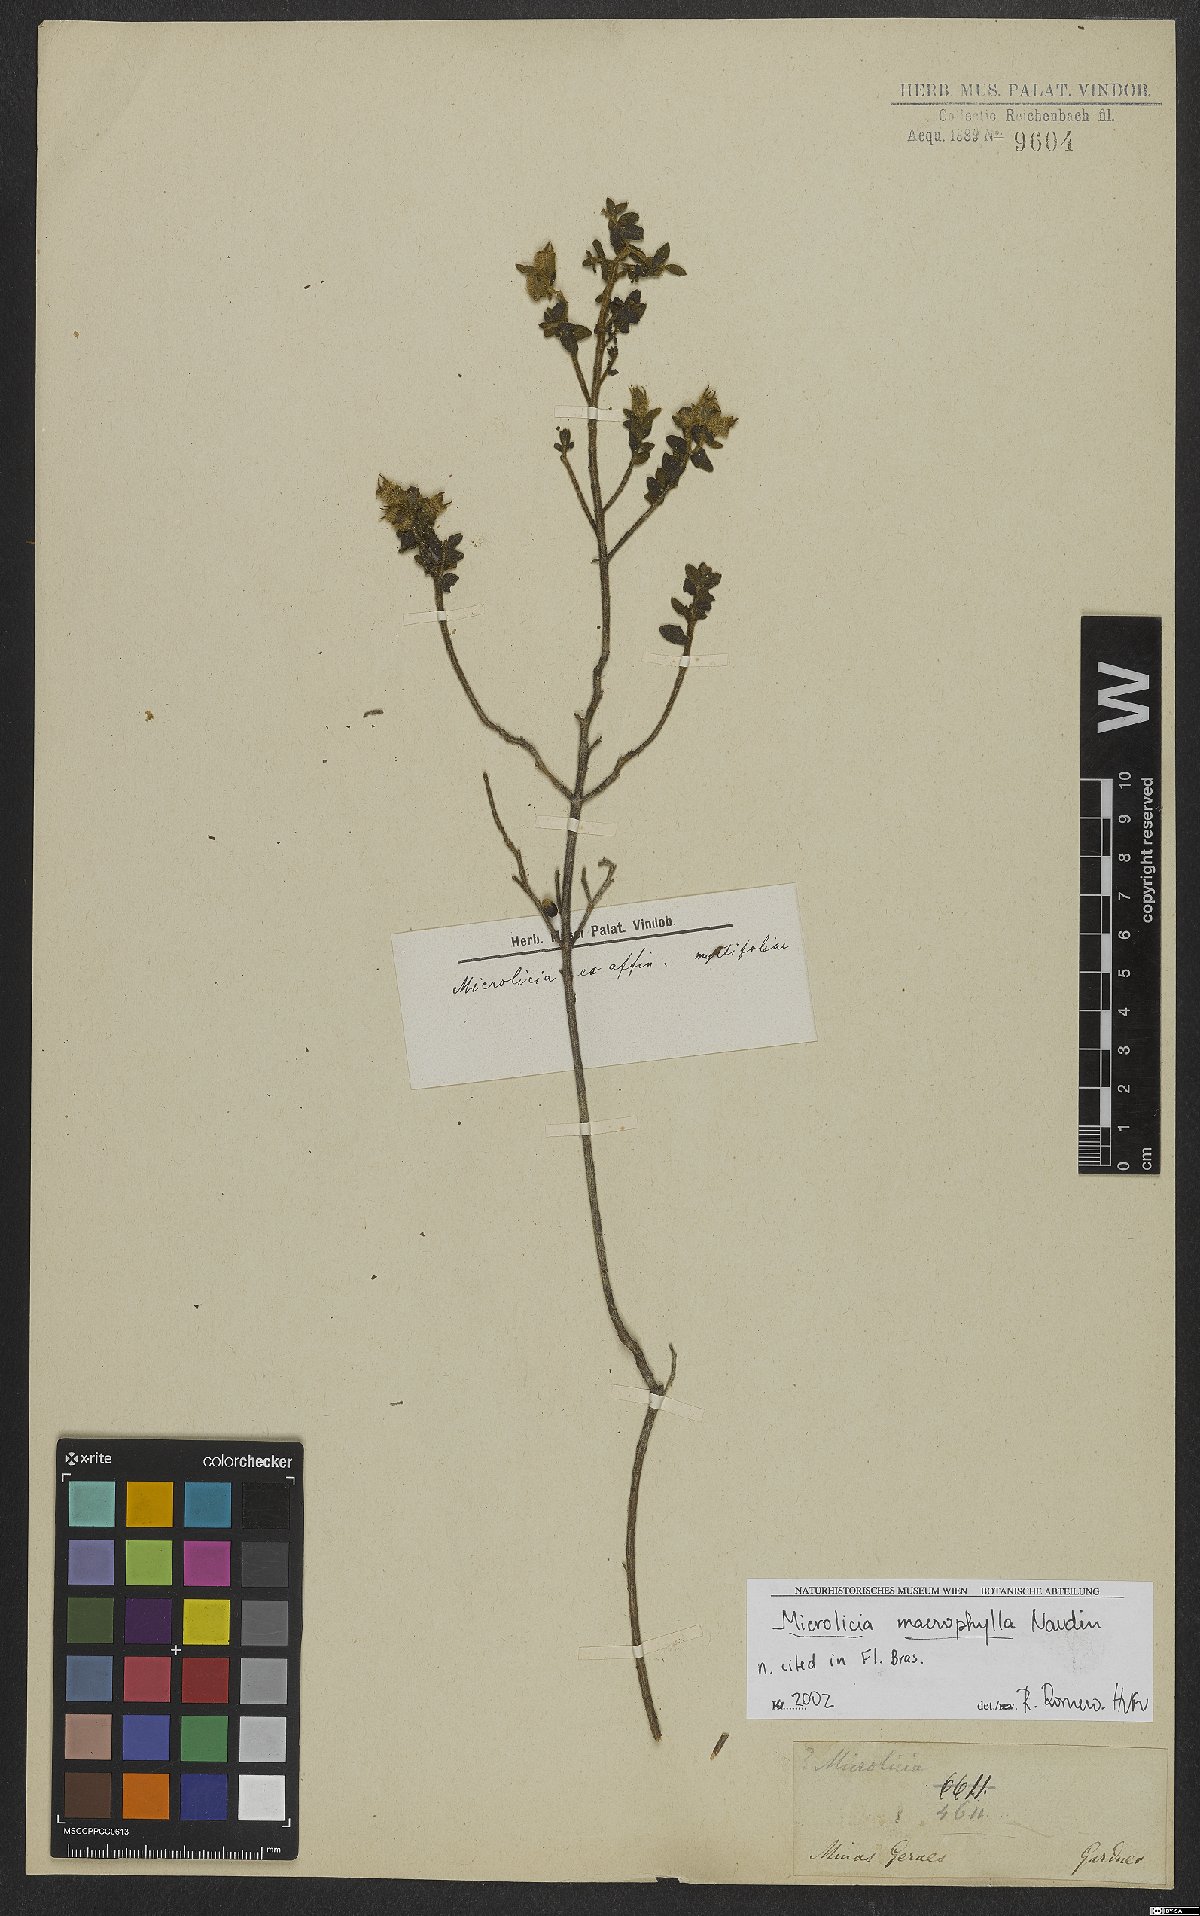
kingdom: Plantae
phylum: Tracheophyta
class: Magnoliopsida
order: Myrtales
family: Melastomataceae
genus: Microlicia
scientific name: Microlicia macrophylla
